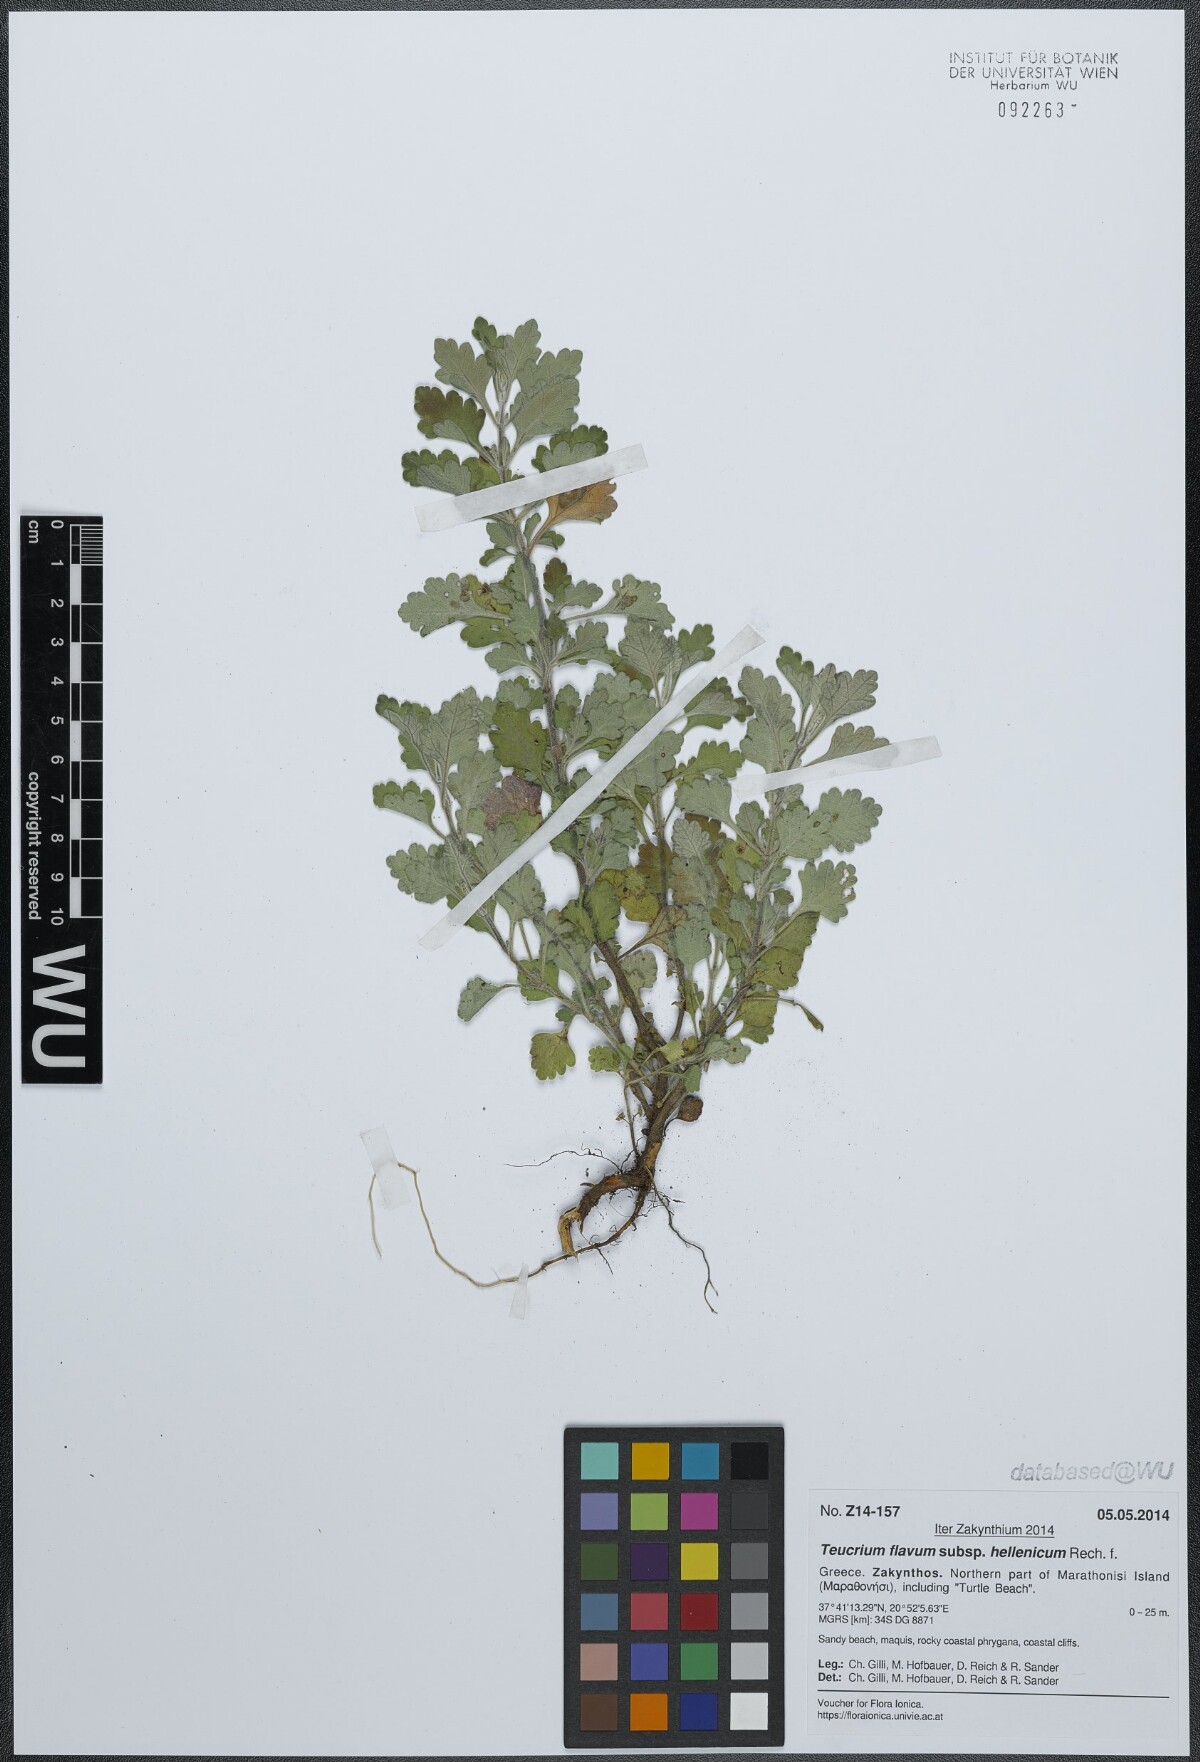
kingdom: Plantae
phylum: Tracheophyta
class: Magnoliopsida
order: Lamiales
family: Lamiaceae
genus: Teucrium
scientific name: Teucrium flavum
